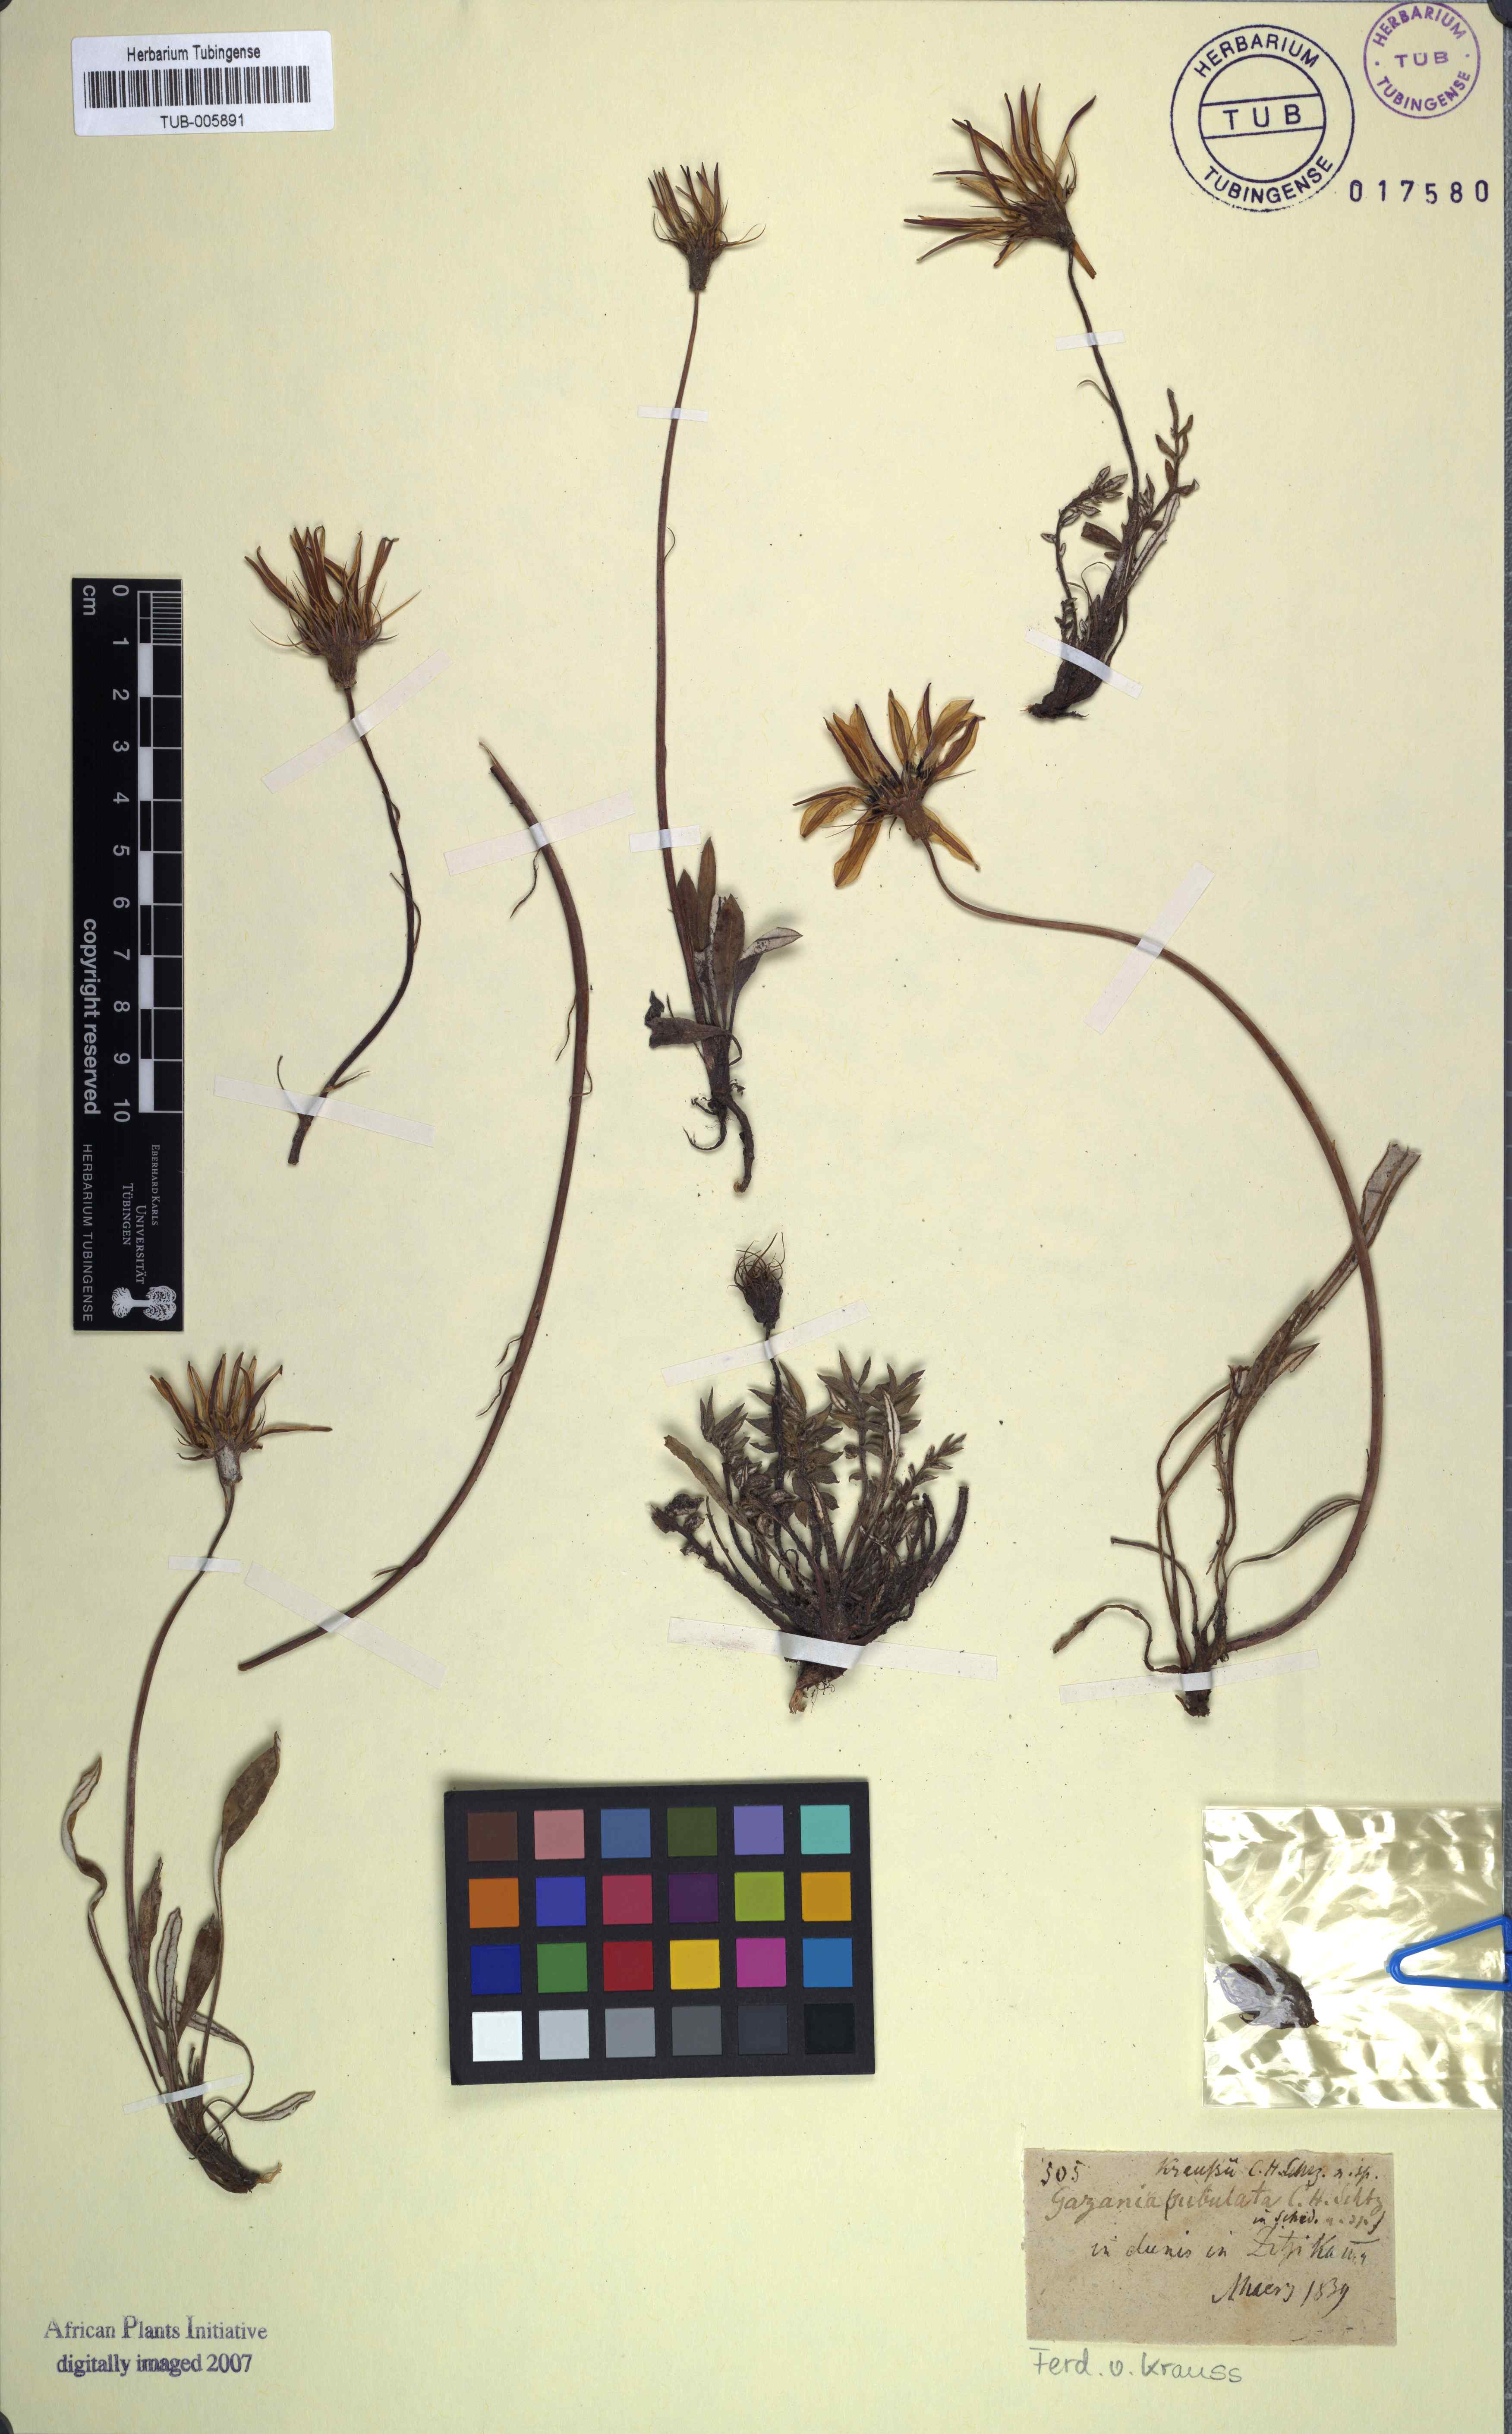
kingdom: Plantae
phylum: Tracheophyta
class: Magnoliopsida
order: Asterales
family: Asteraceae
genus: Gazania
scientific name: Gazania linearis
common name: Treasureflower
